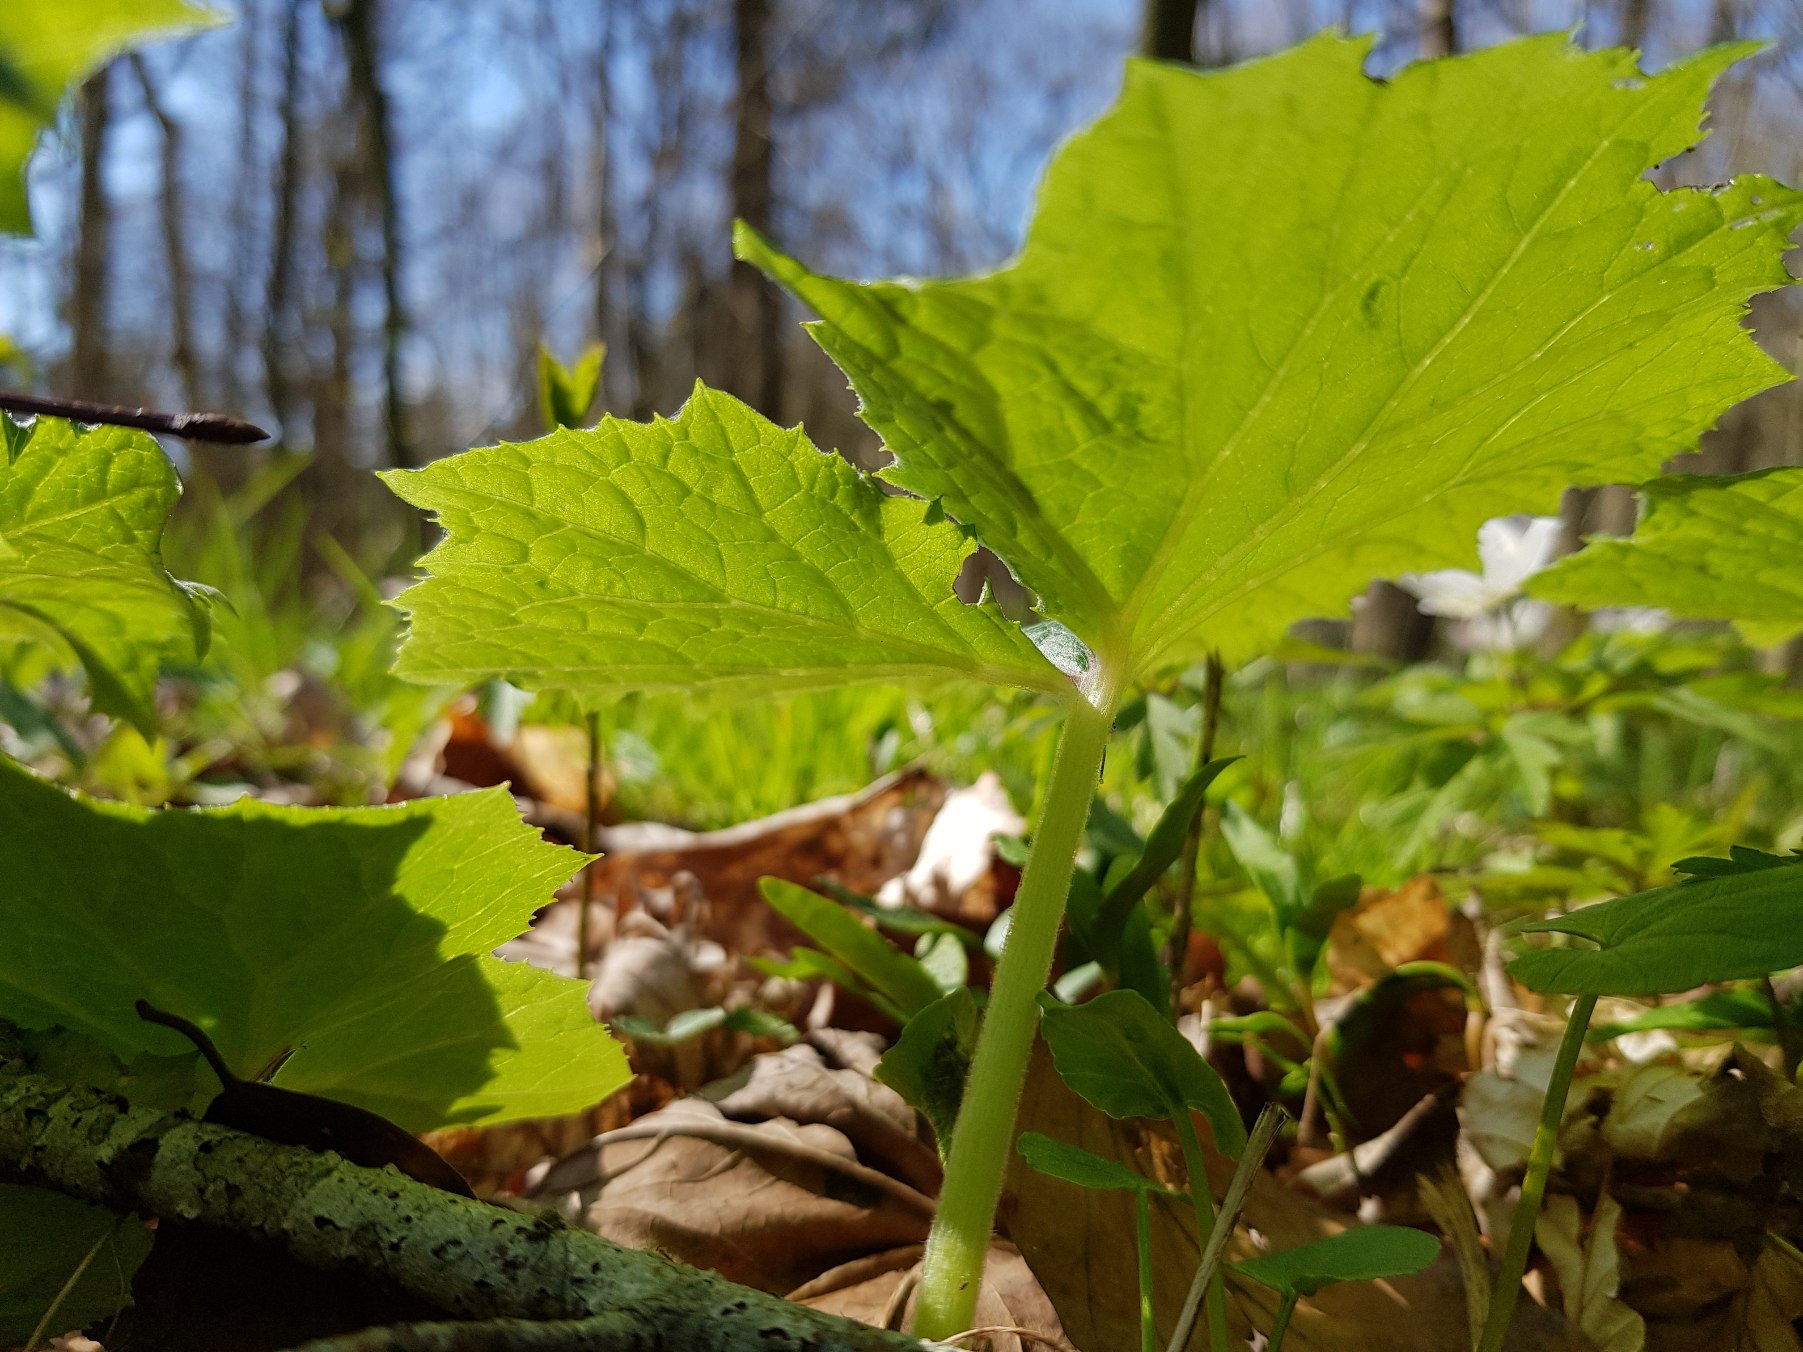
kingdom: Plantae
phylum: Tracheophyta
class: Magnoliopsida
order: Asterales
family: Asteraceae
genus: Petasites
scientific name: Petasites albus
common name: Hvid hestehov
